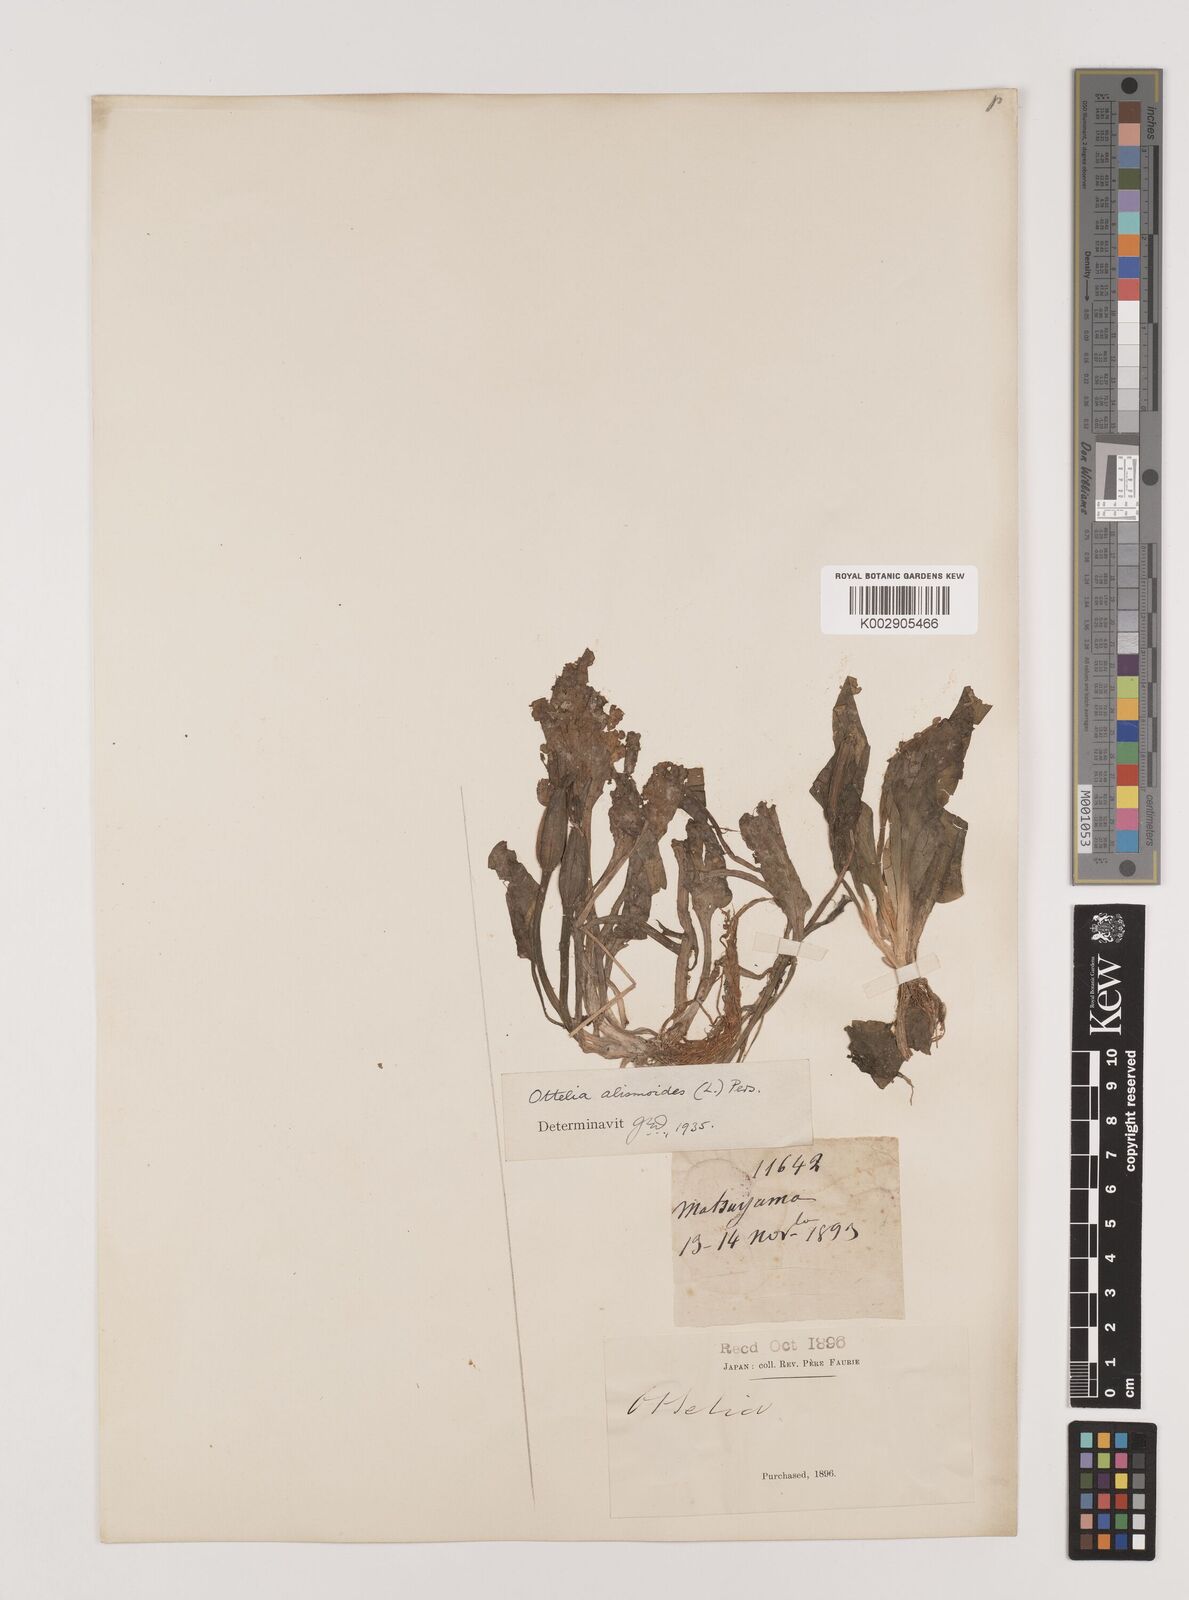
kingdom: Plantae
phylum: Tracheophyta
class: Liliopsida
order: Alismatales
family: Hydrocharitaceae
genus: Ottelia
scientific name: Ottelia alismoides
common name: Duck-lettuce
